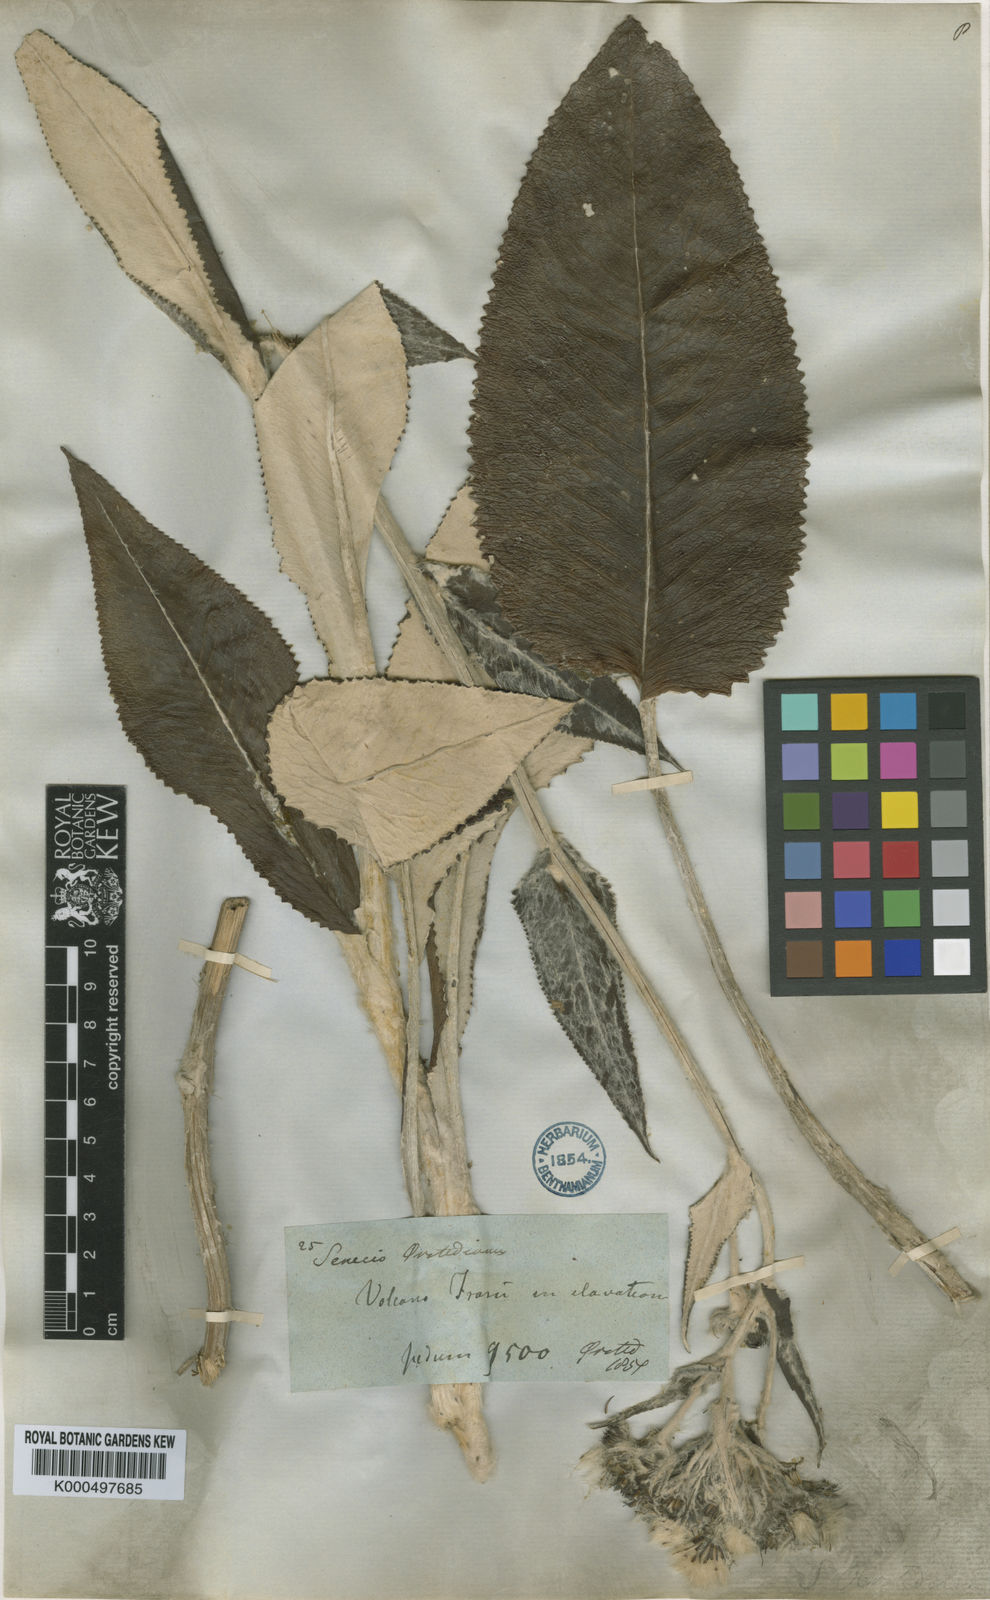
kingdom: Plantae
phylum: Tracheophyta
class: Magnoliopsida
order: Asterales
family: Asteraceae
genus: Senecio
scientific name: Senecio oerstedianus
